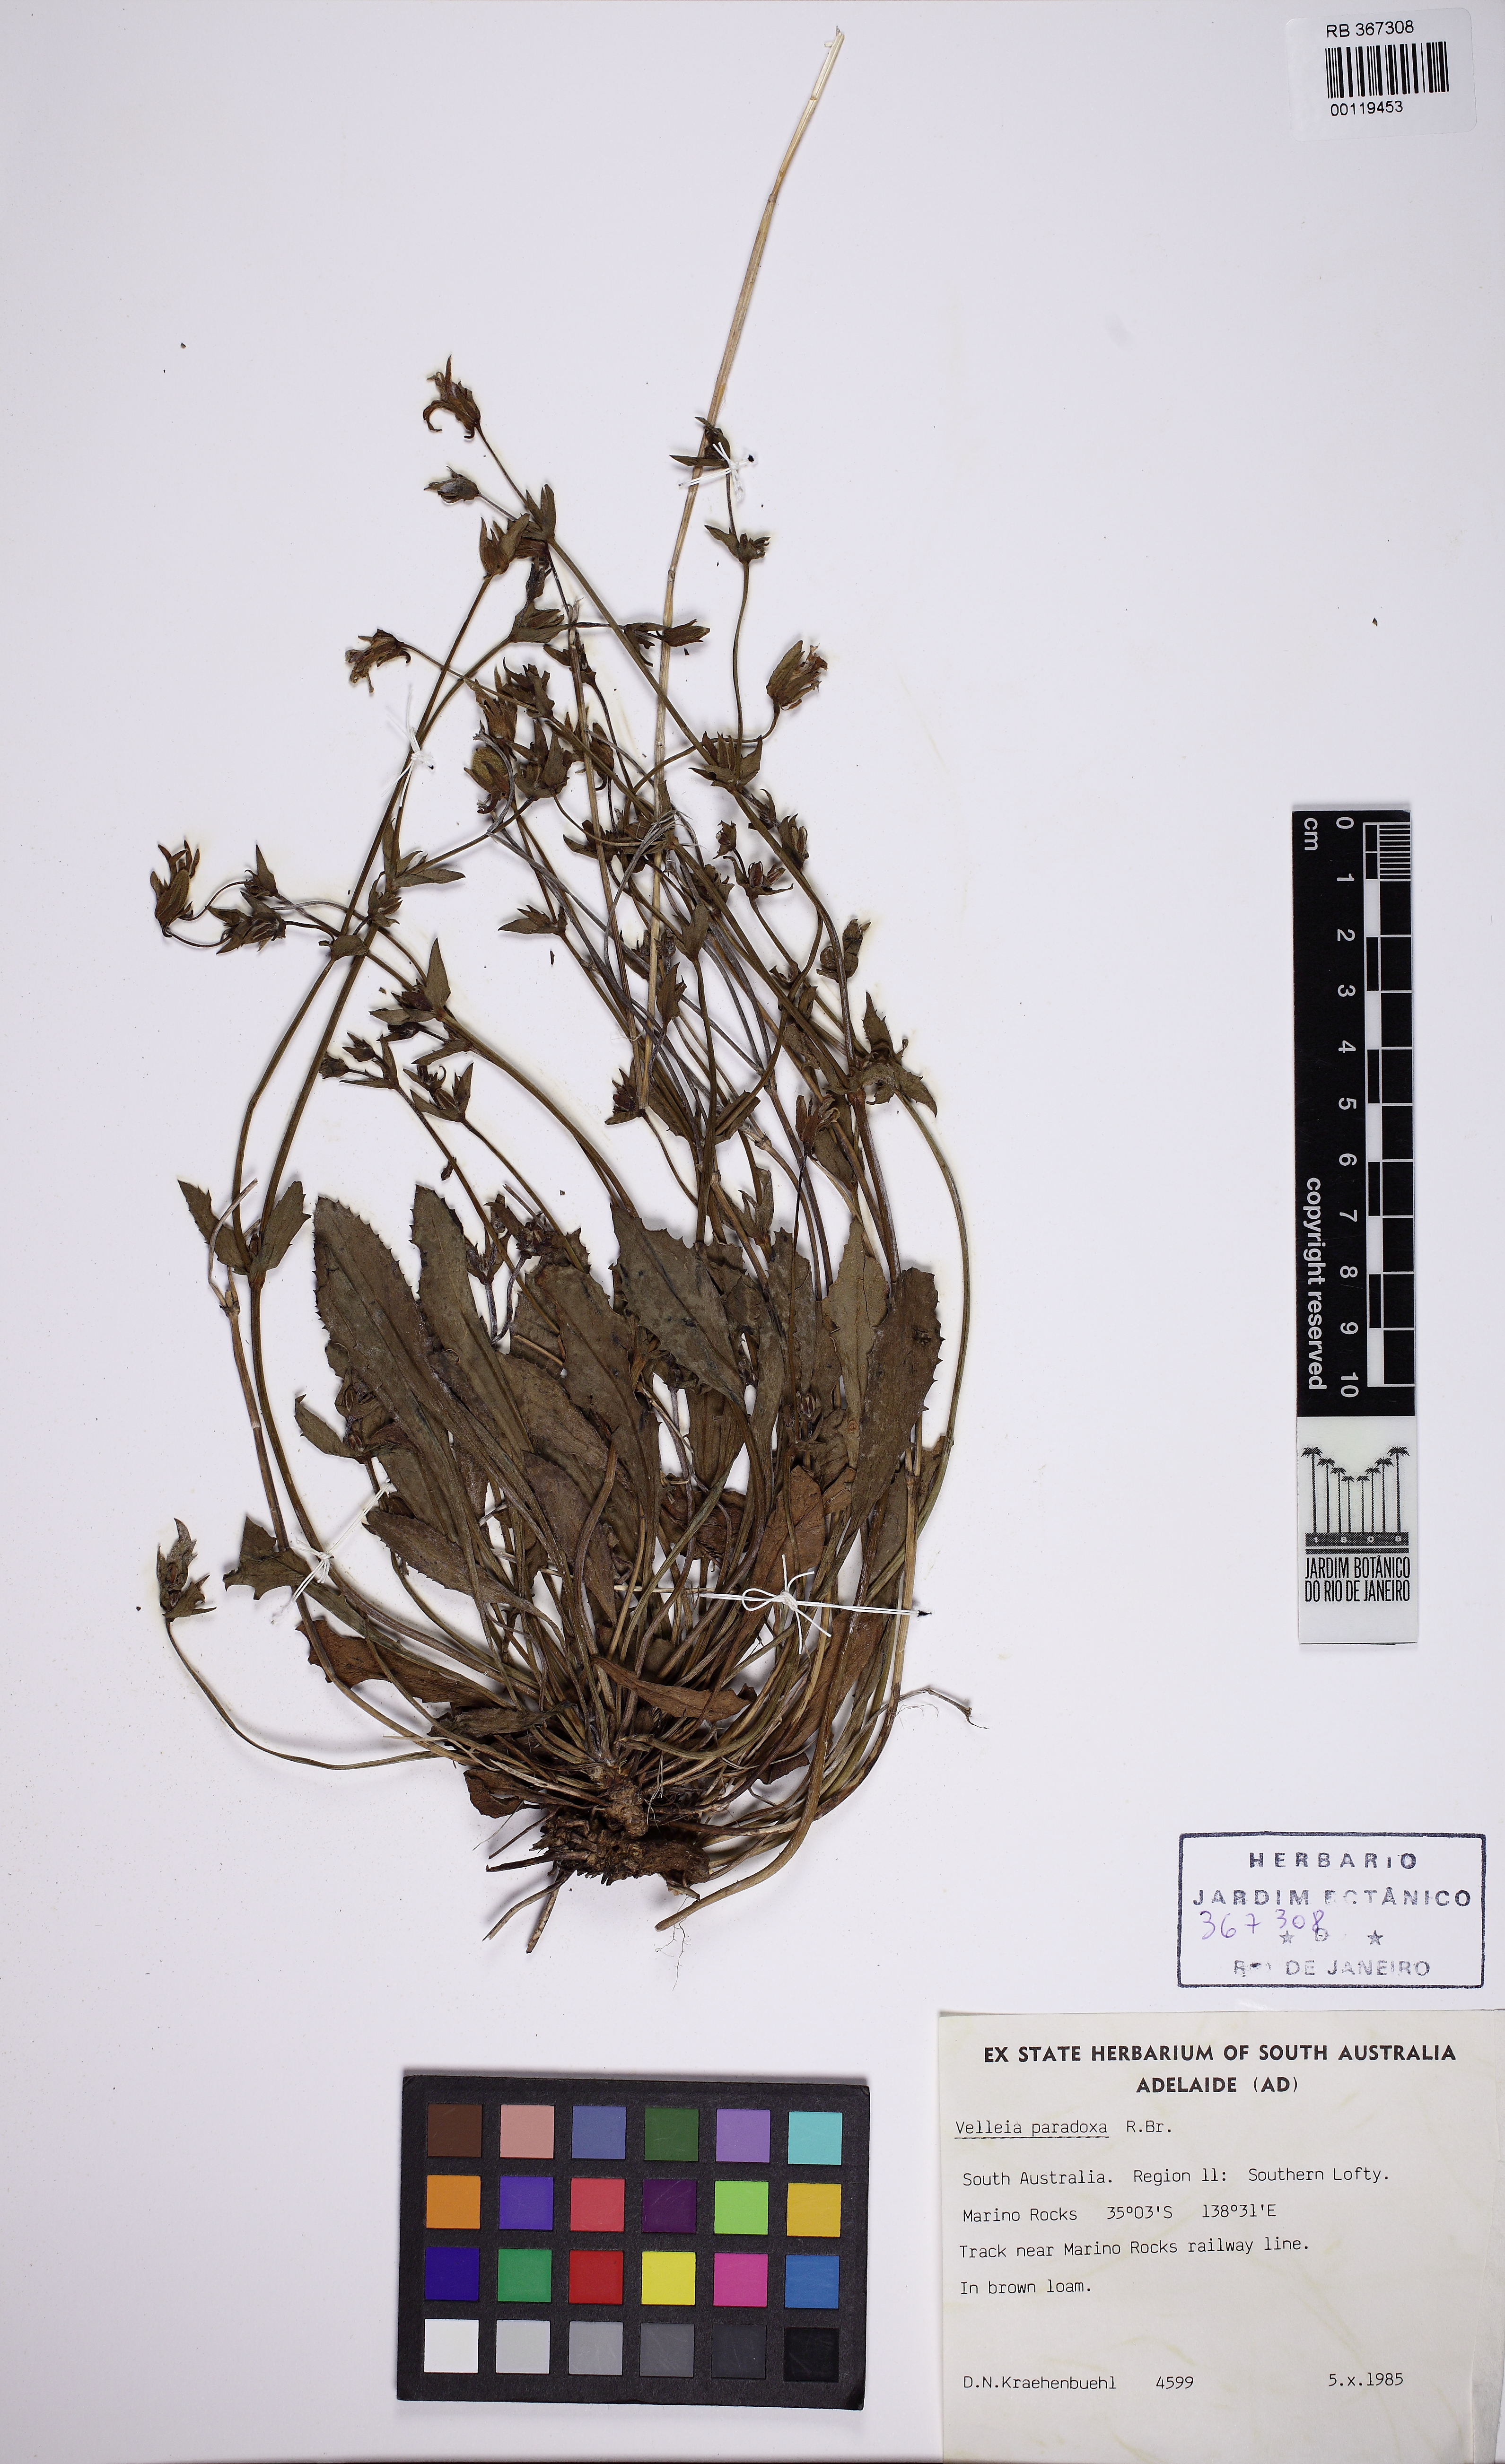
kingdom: Plantae
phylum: Tracheophyta
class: Magnoliopsida
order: Asterales
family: Goodeniaceae
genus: Goodenia
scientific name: Goodenia paradoxa
